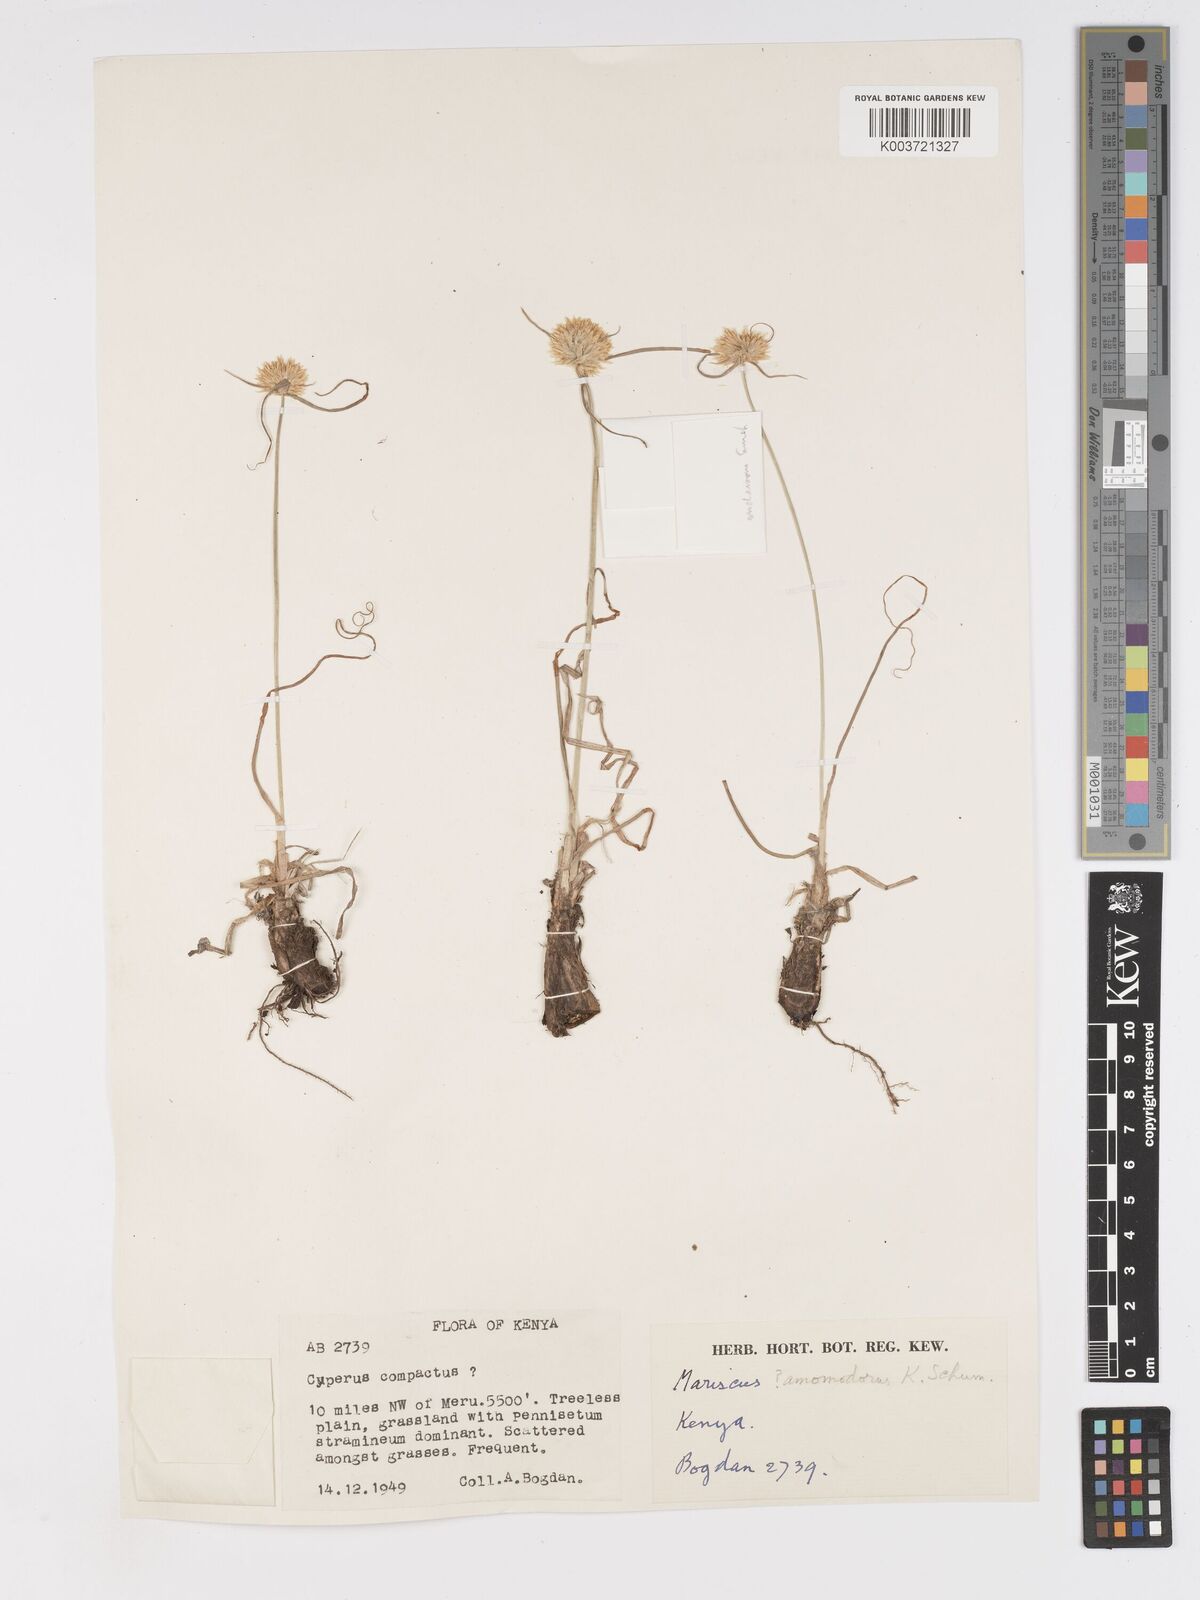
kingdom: Plantae
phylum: Tracheophyta
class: Liliopsida
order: Poales
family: Cyperaceae
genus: Cyperus
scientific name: Cyperus mollipes
